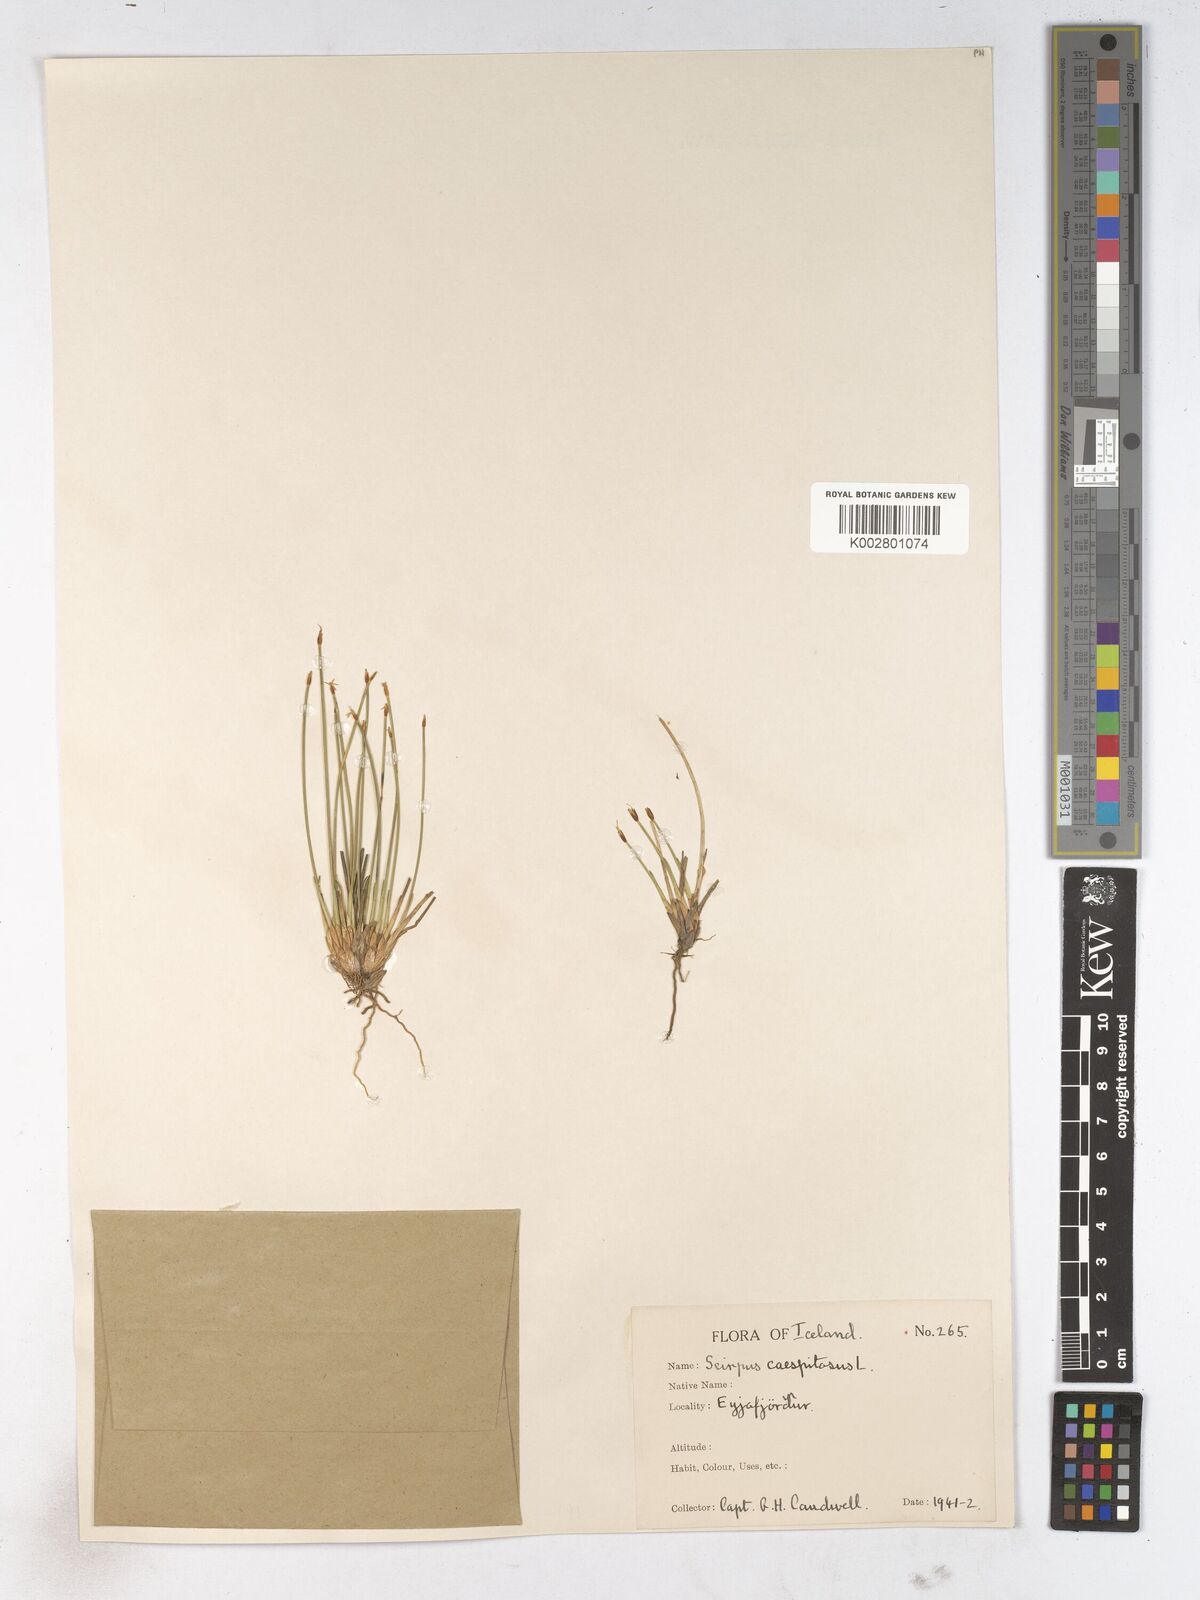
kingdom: Plantae
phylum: Tracheophyta
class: Liliopsida
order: Poales
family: Cyperaceae
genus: Trichophorum
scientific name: Trichophorum cespitosum
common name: Cespitose bulrush
